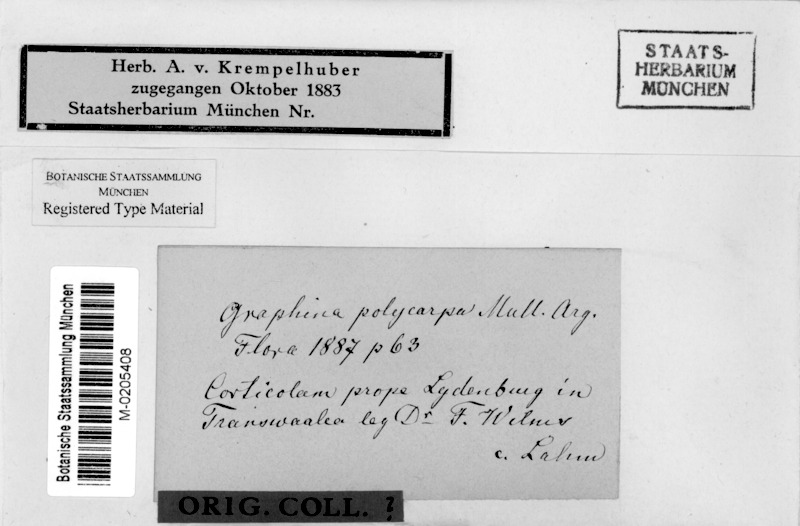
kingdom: Fungi
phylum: Ascomycota
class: Lecanoromycetes
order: Ostropales
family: Graphidaceae
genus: Graphina
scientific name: Graphina
